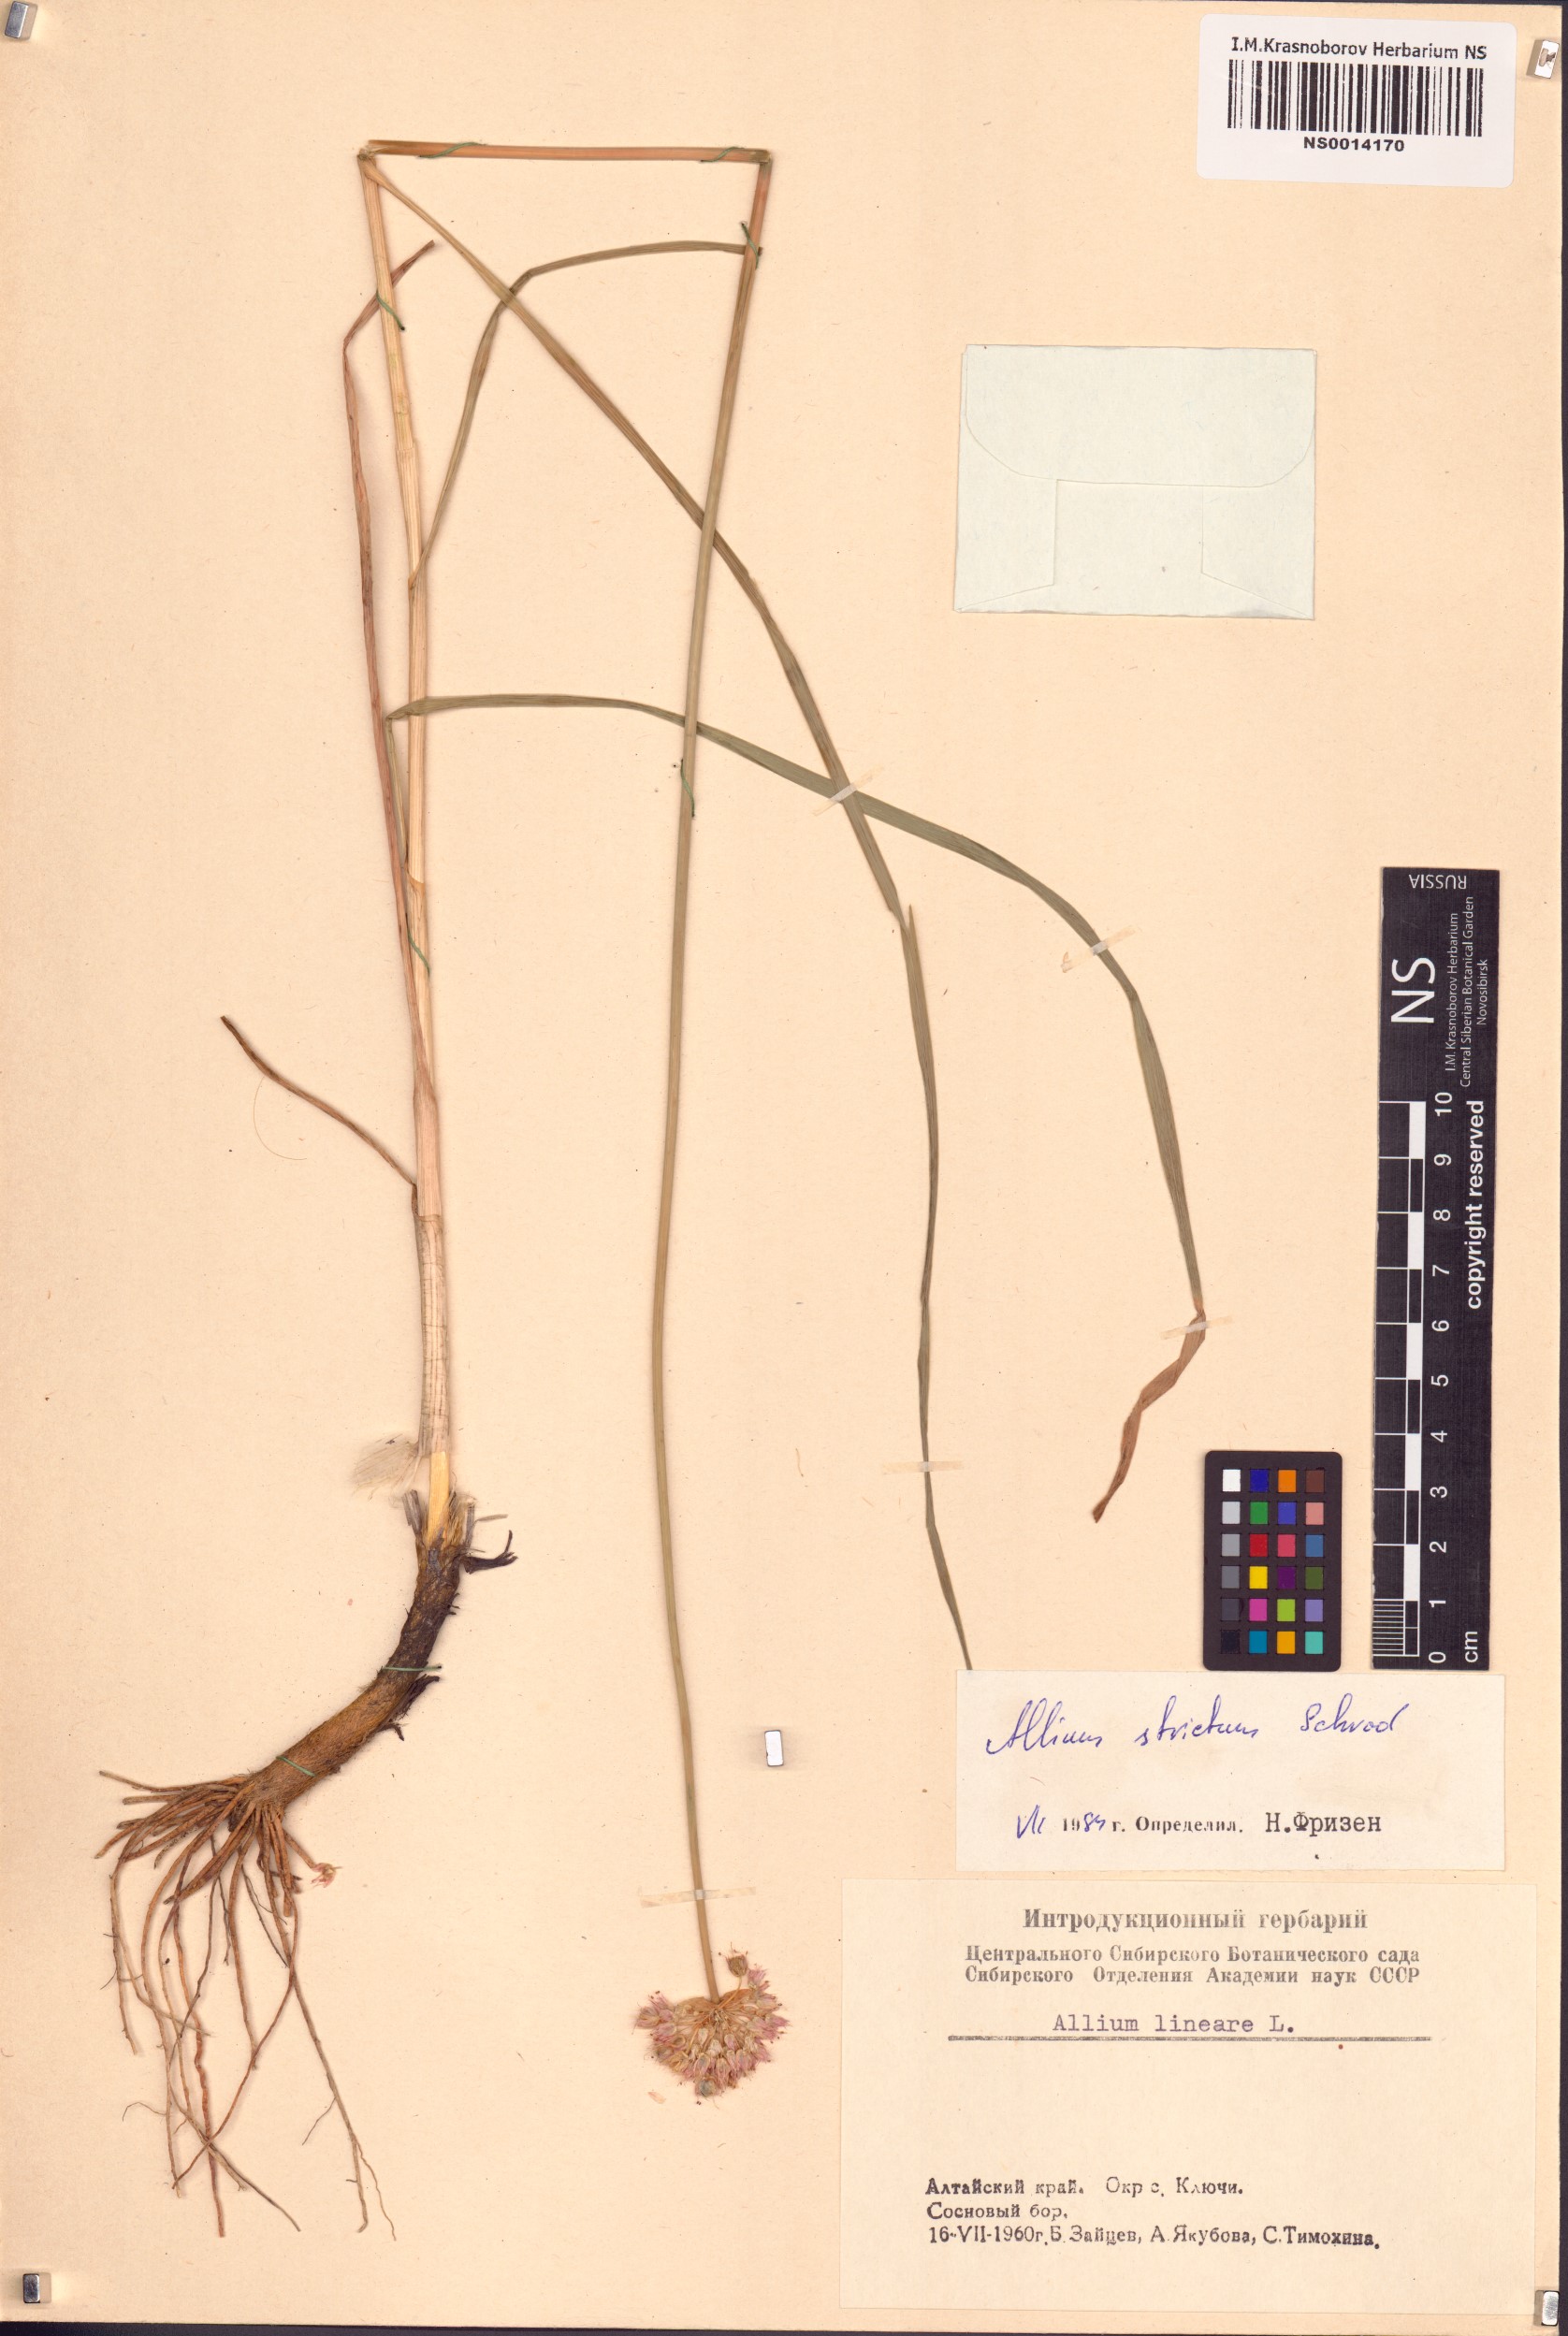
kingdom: Plantae
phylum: Tracheophyta
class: Liliopsida
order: Asparagales
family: Amaryllidaceae
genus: Allium
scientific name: Allium strictum
